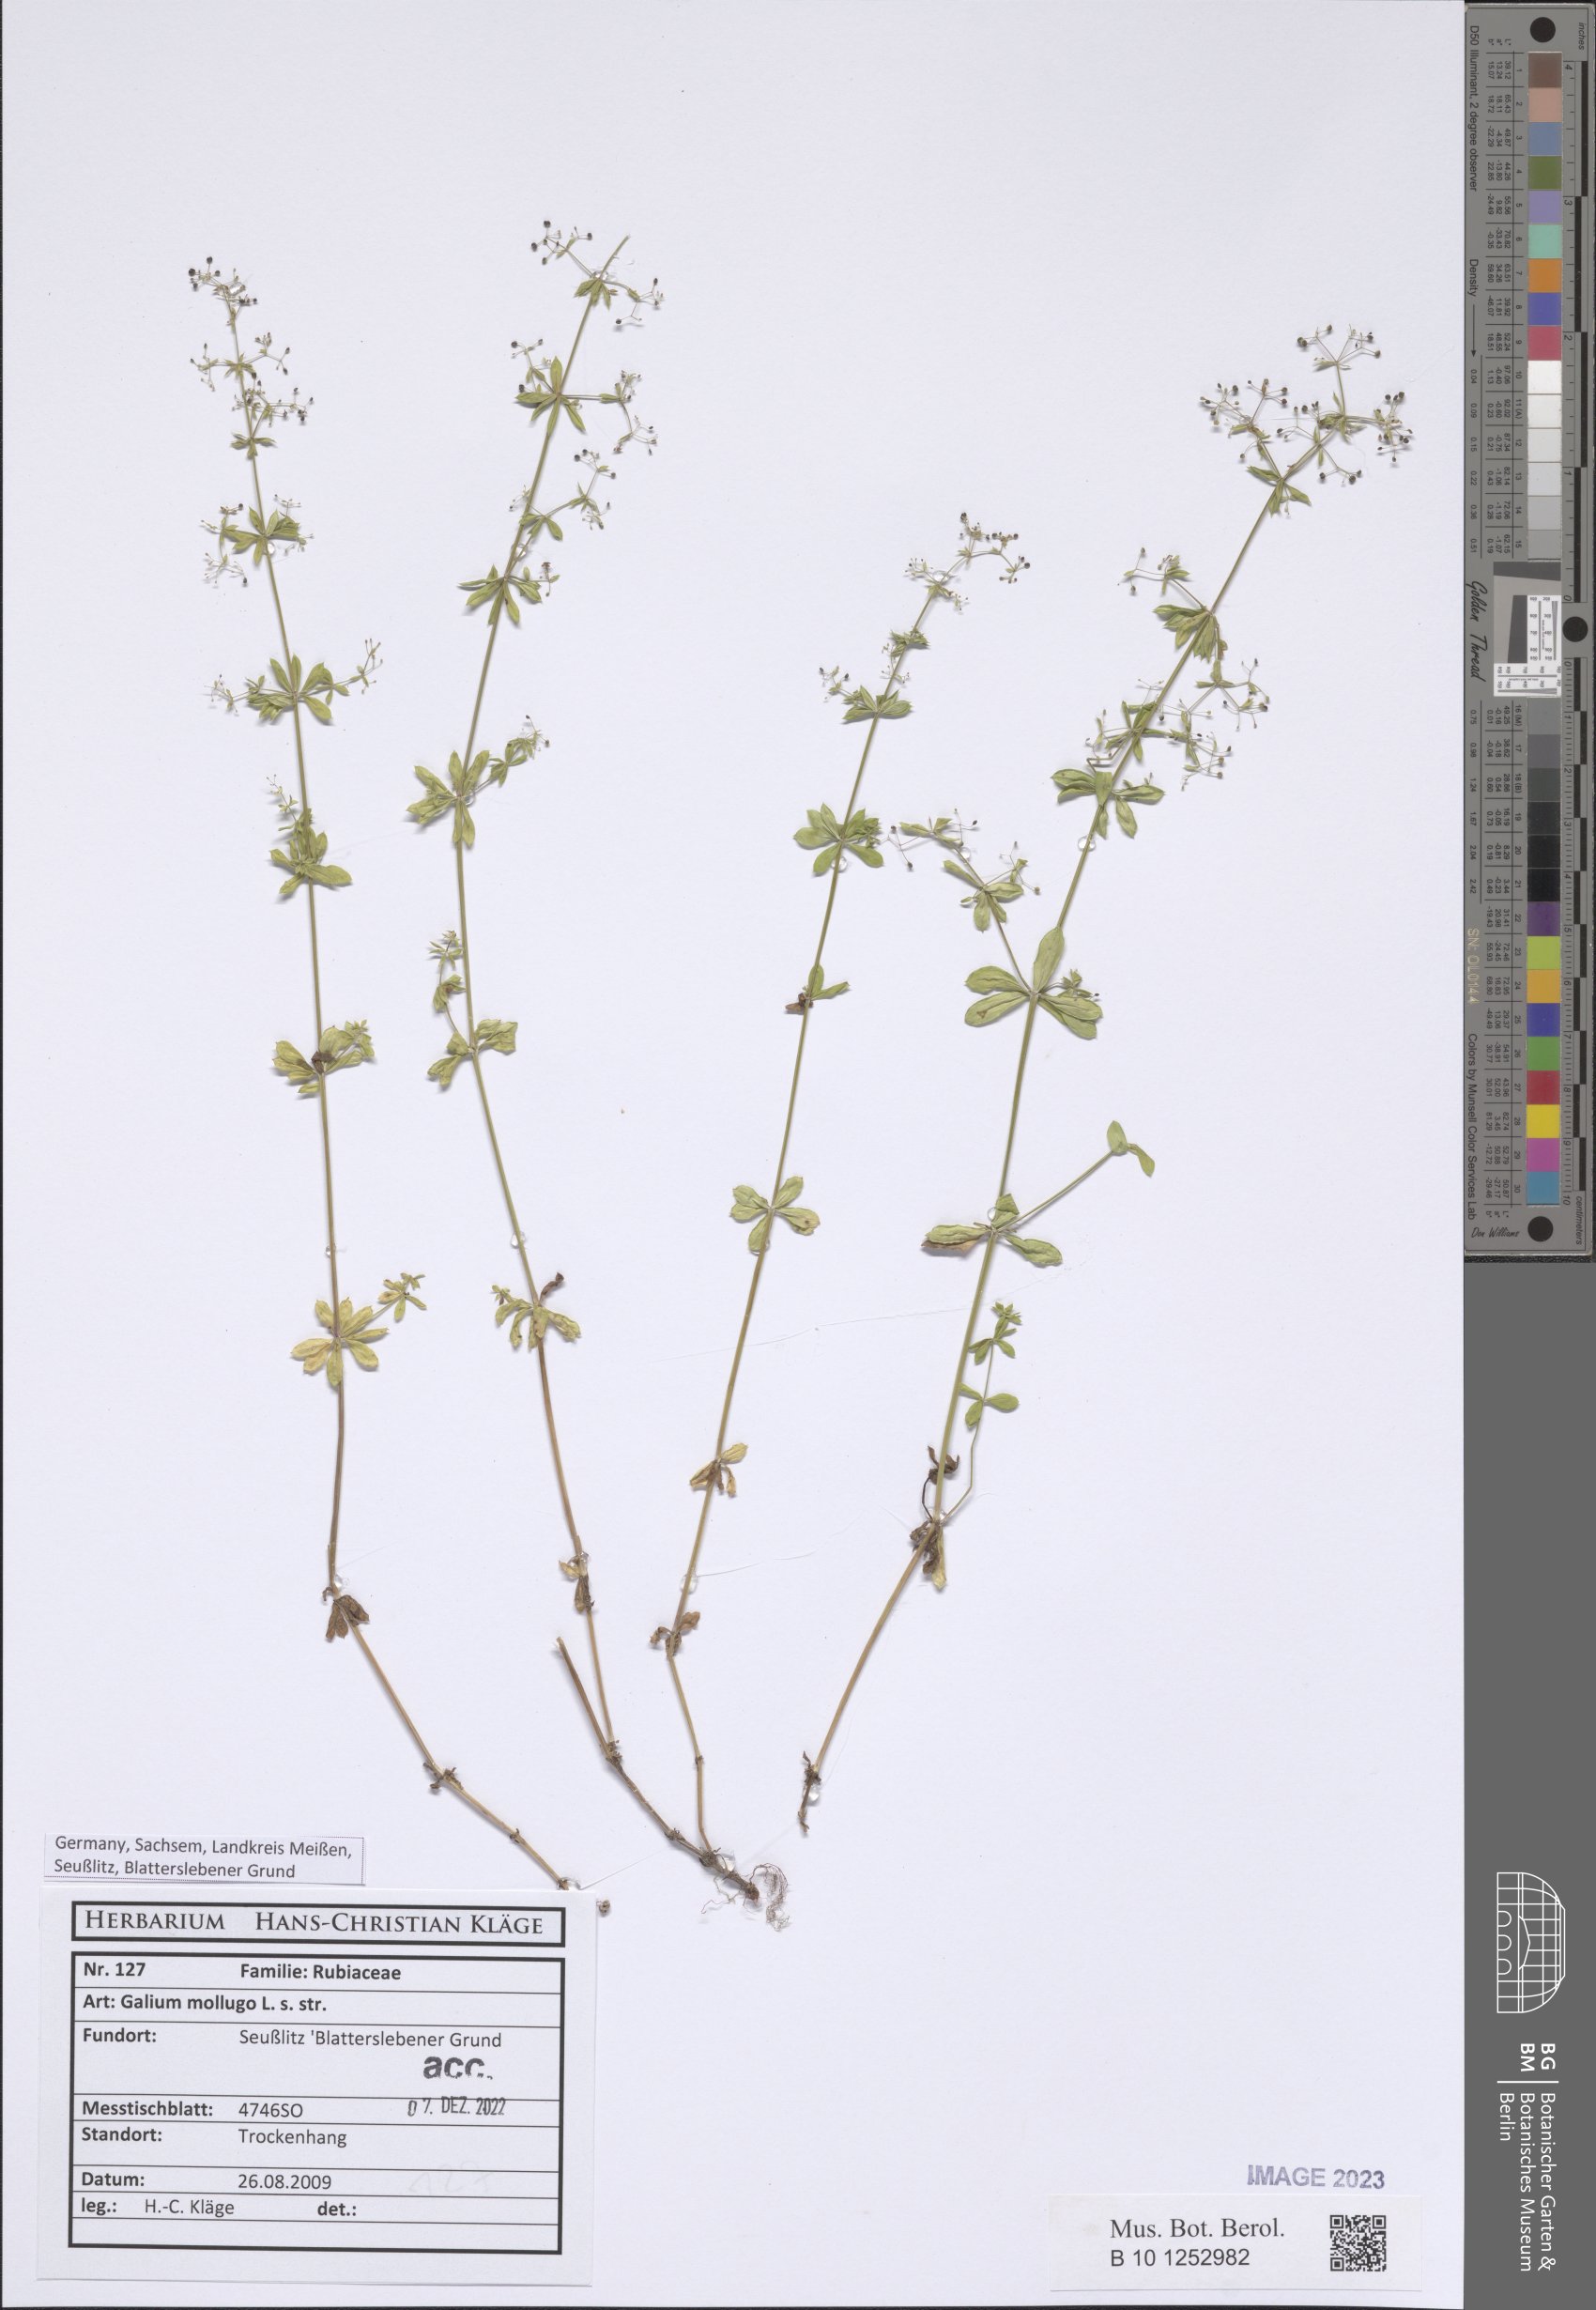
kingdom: Plantae
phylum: Tracheophyta
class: Magnoliopsida
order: Gentianales
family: Rubiaceae
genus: Galium
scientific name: Galium mollugo
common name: Hedge bedstraw
